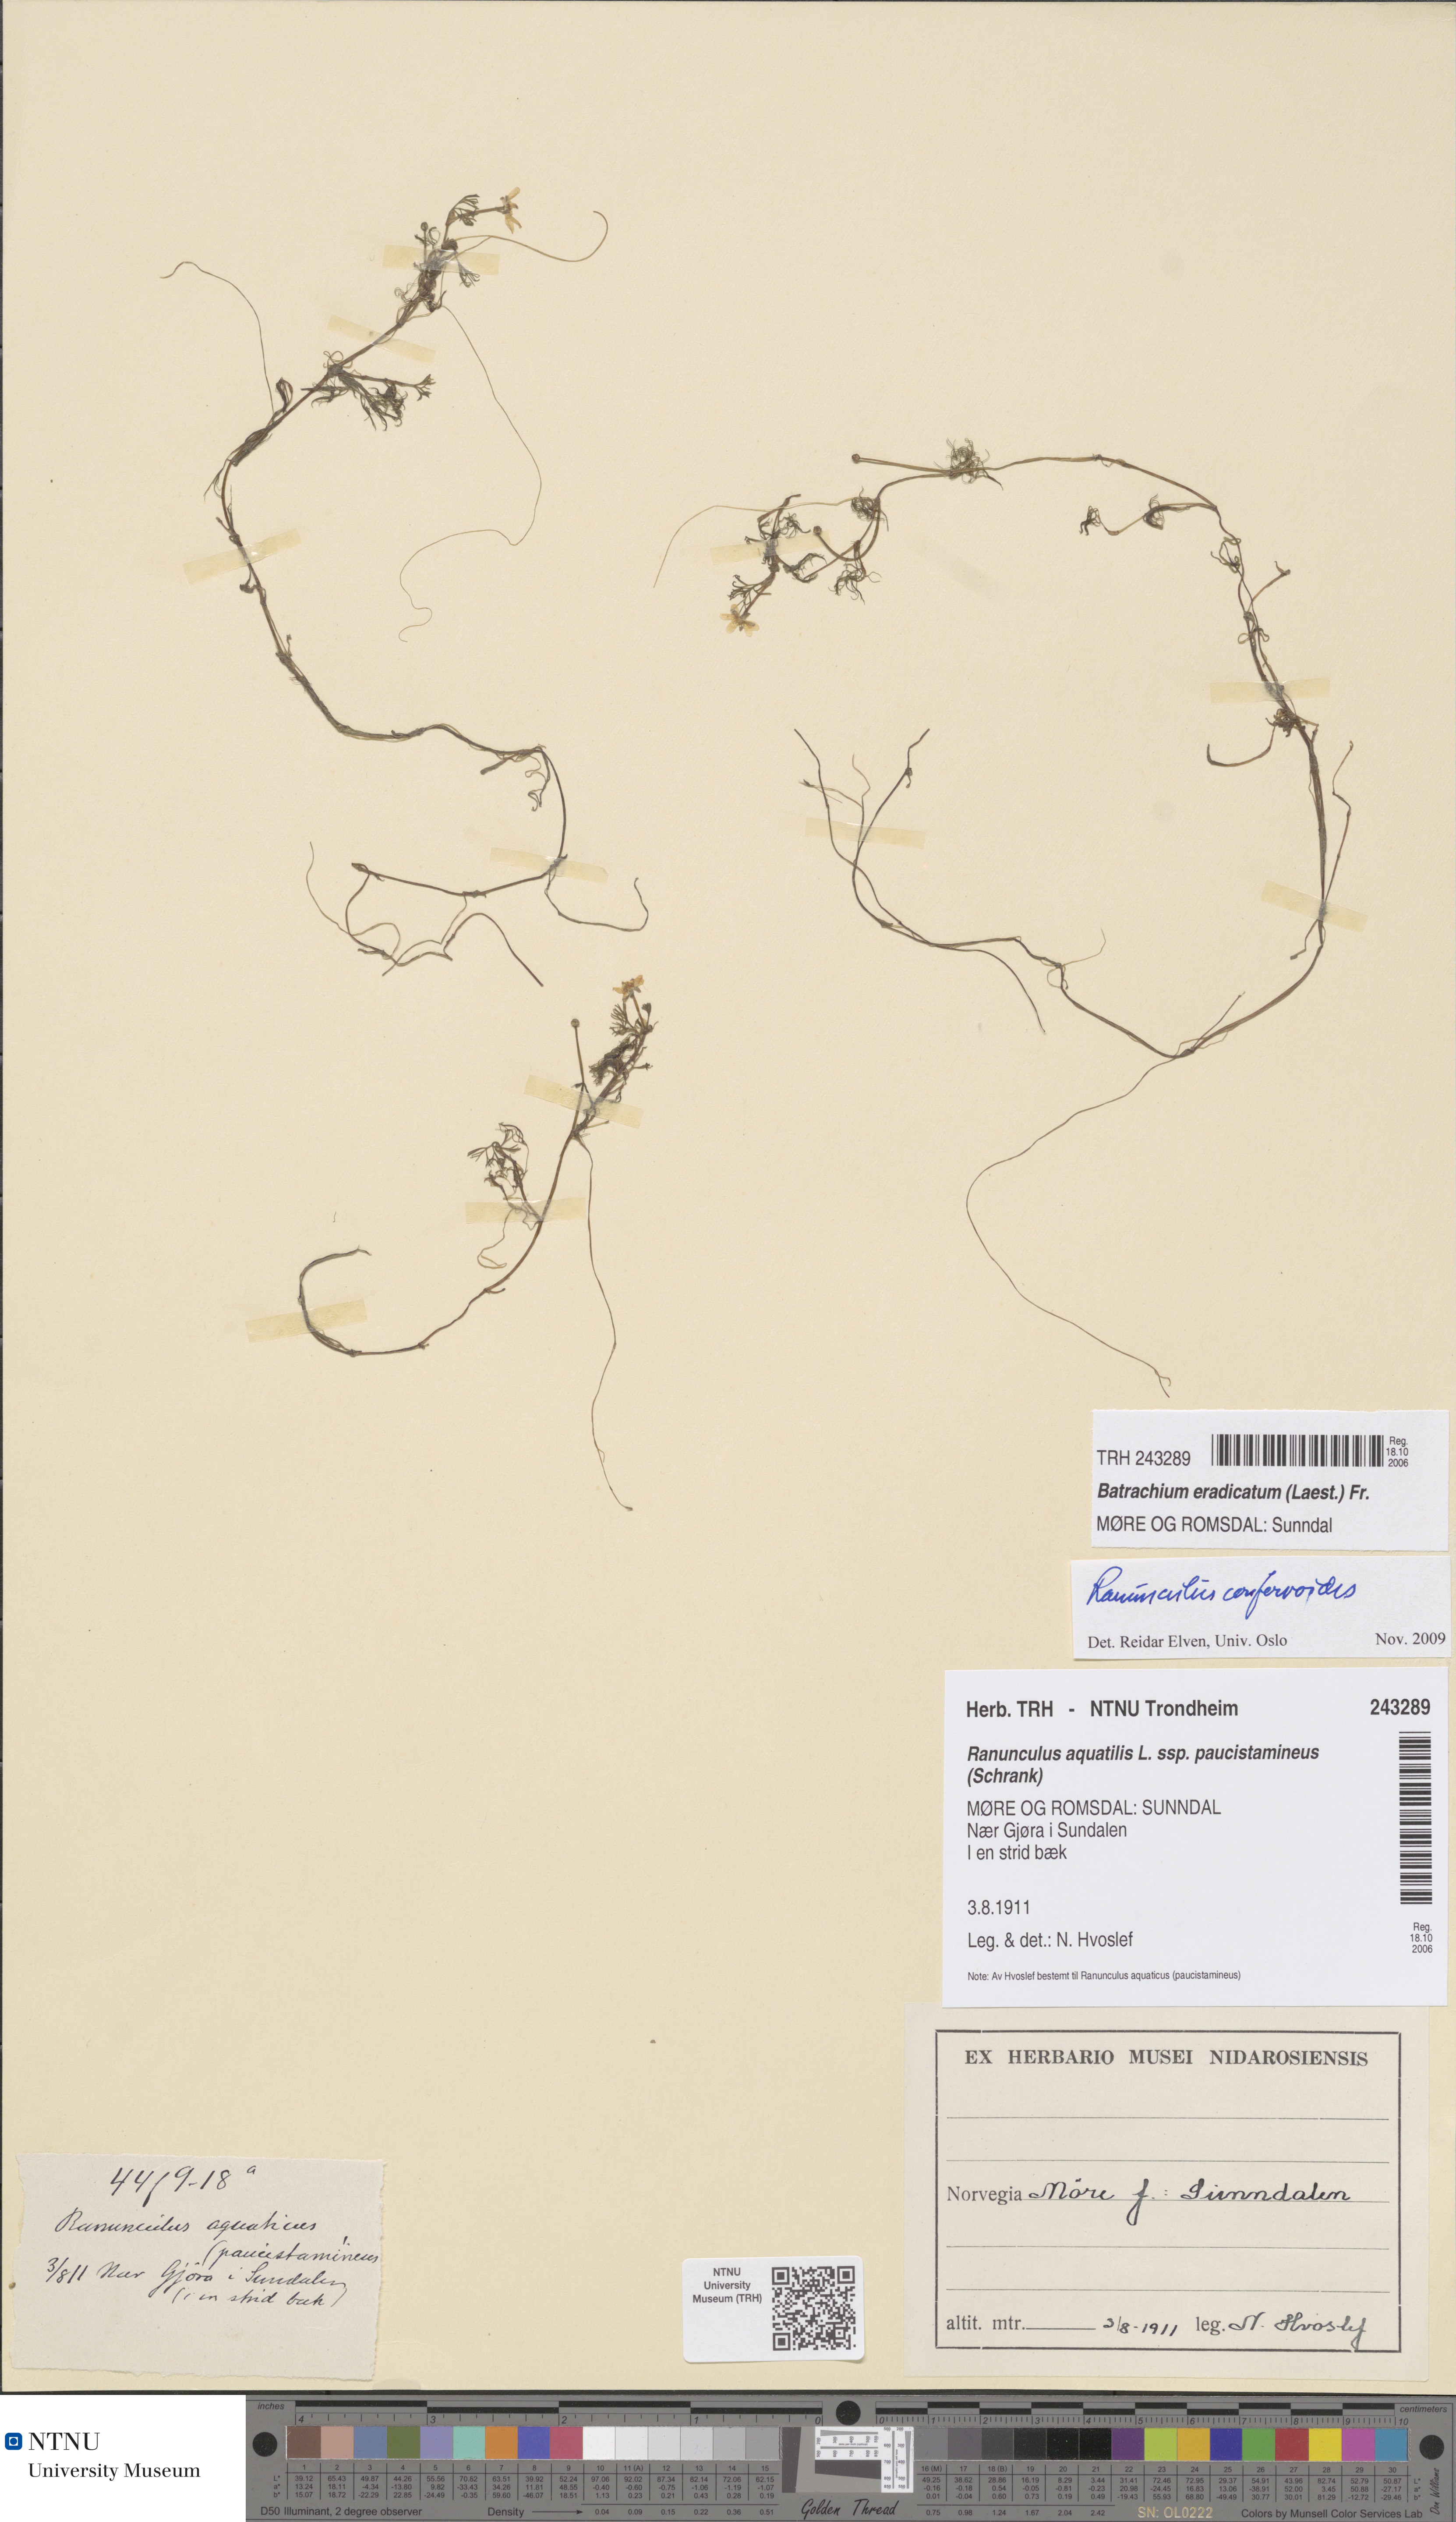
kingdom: Plantae
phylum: Tracheophyta
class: Magnoliopsida
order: Ranunculales
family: Ranunculaceae
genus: Ranunculus
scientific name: Ranunculus confervoides
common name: Delicate buttercup
